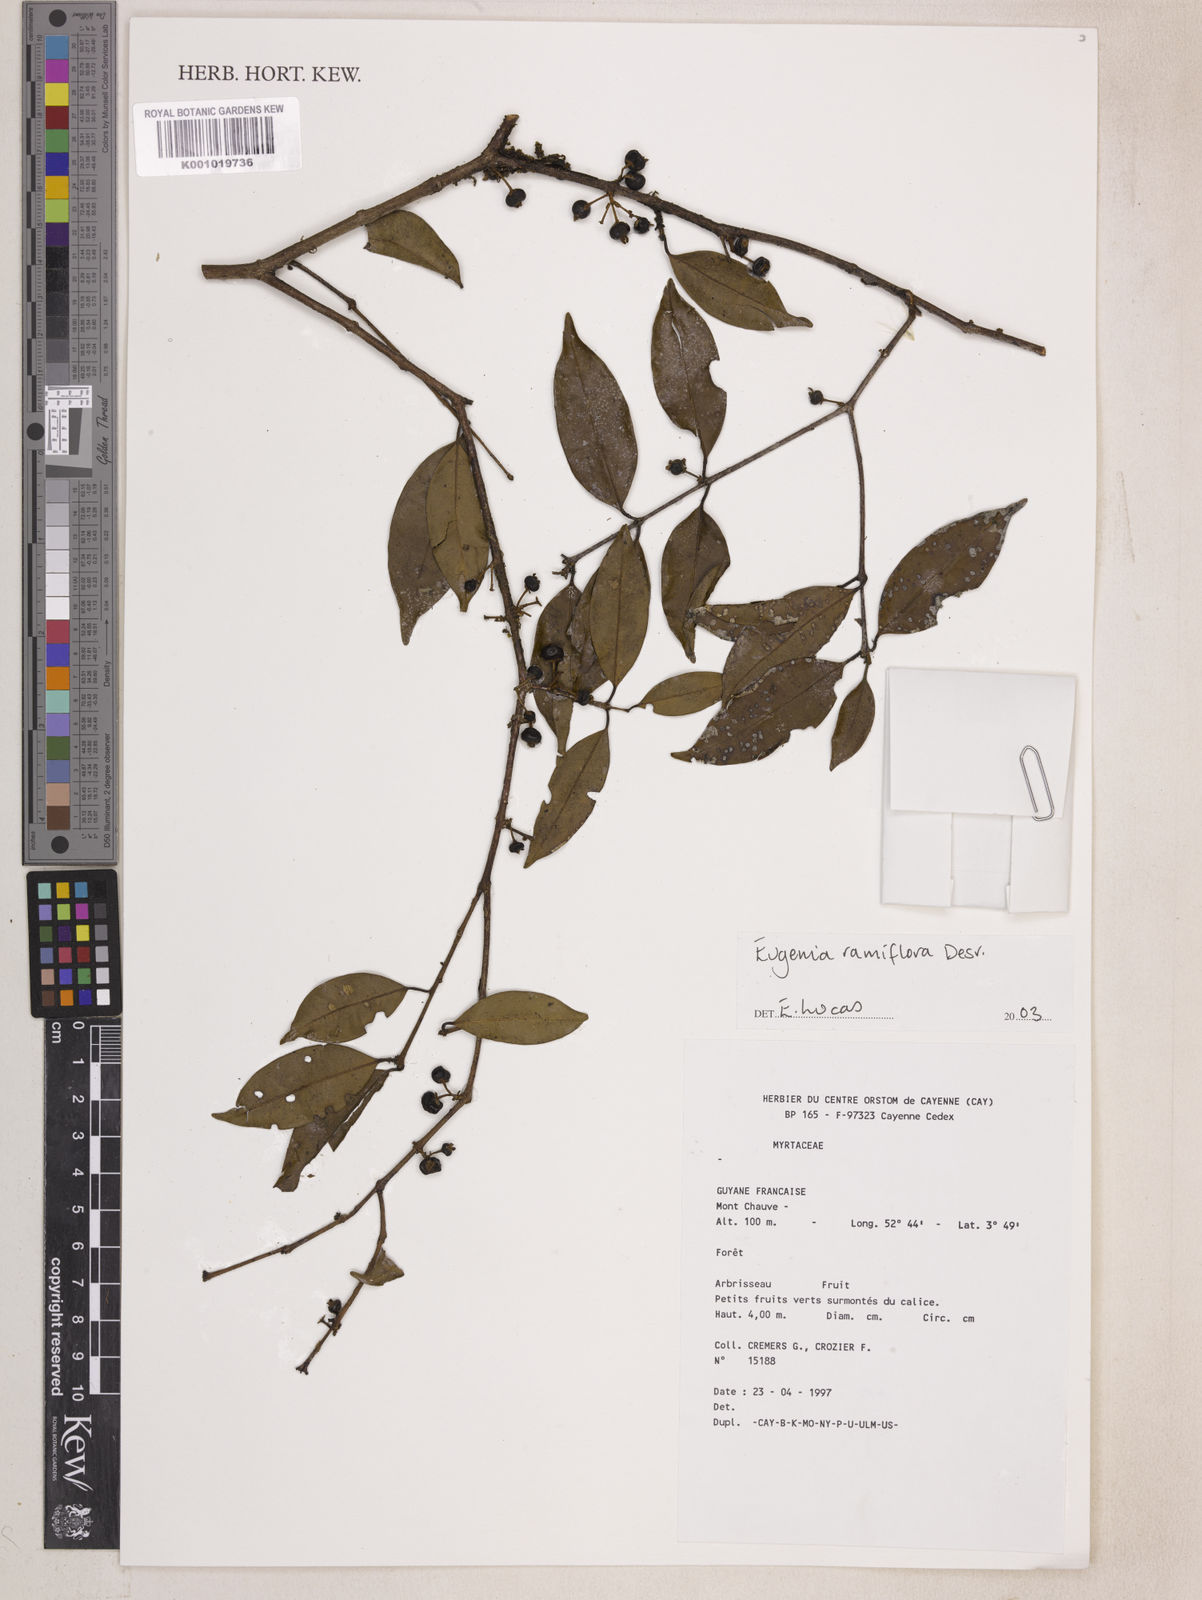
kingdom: Plantae
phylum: Tracheophyta
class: Magnoliopsida
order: Myrtales
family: Myrtaceae
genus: Eugenia
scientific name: Eugenia ramiflora
